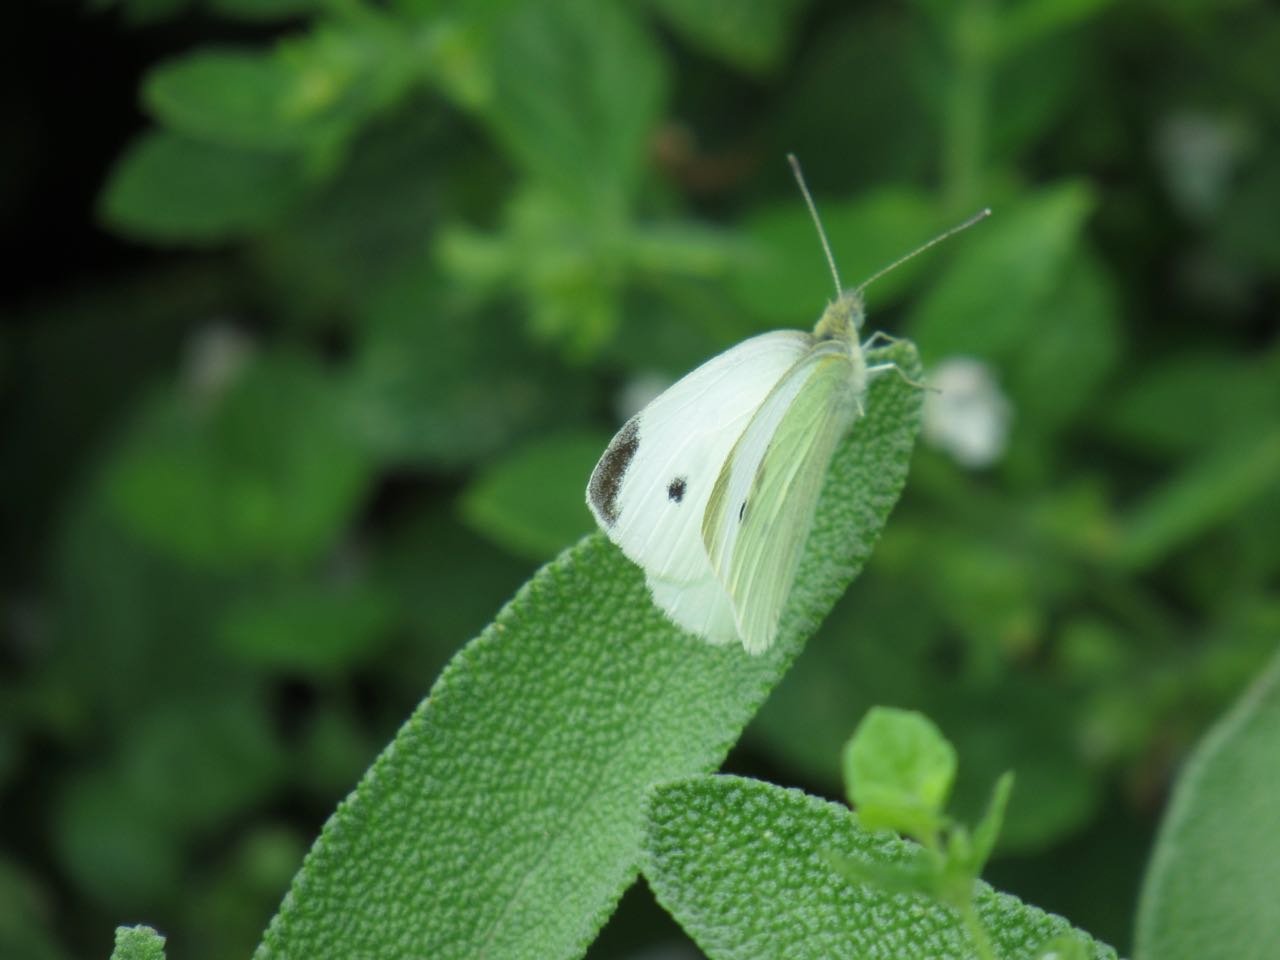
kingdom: Animalia
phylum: Arthropoda
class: Insecta
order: Lepidoptera
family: Pieridae
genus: Pieris
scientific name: Pieris rapae
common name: Cabbage White
